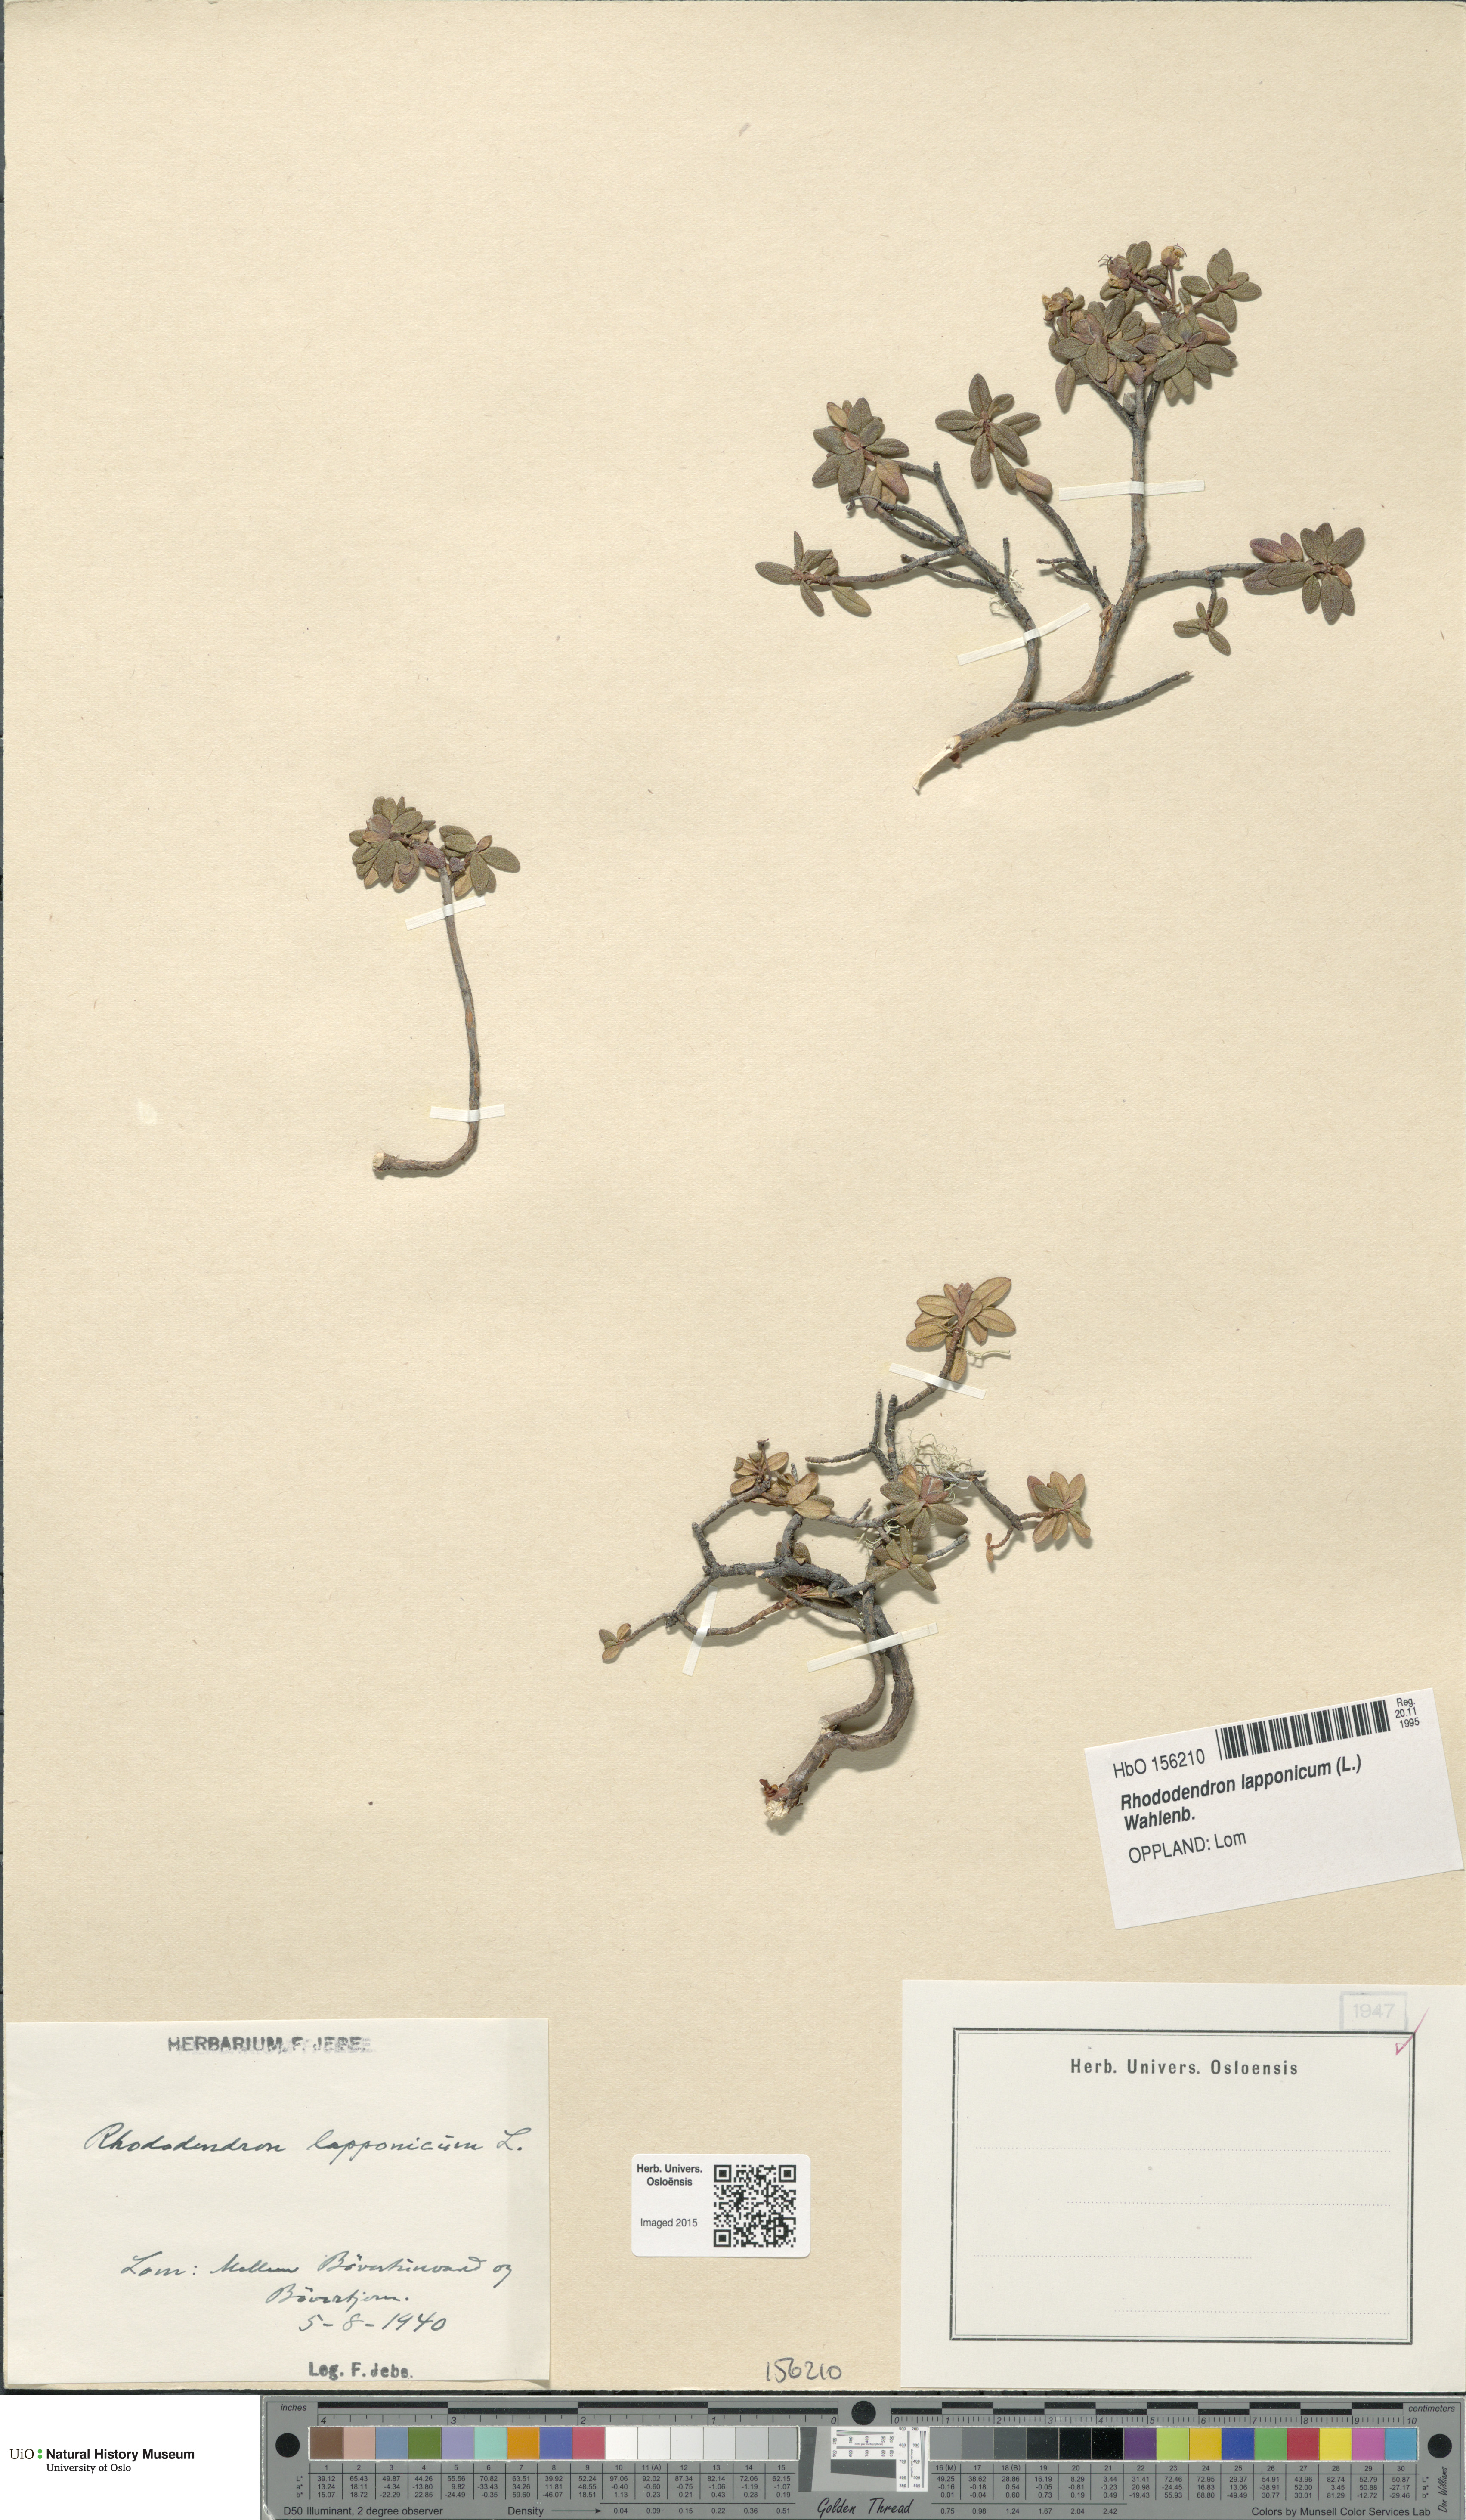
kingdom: Plantae
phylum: Tracheophyta
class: Magnoliopsida
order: Ericales
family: Ericaceae
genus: Rhododendron
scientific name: Rhododendron lapponicum
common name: Lapland rhododendron
